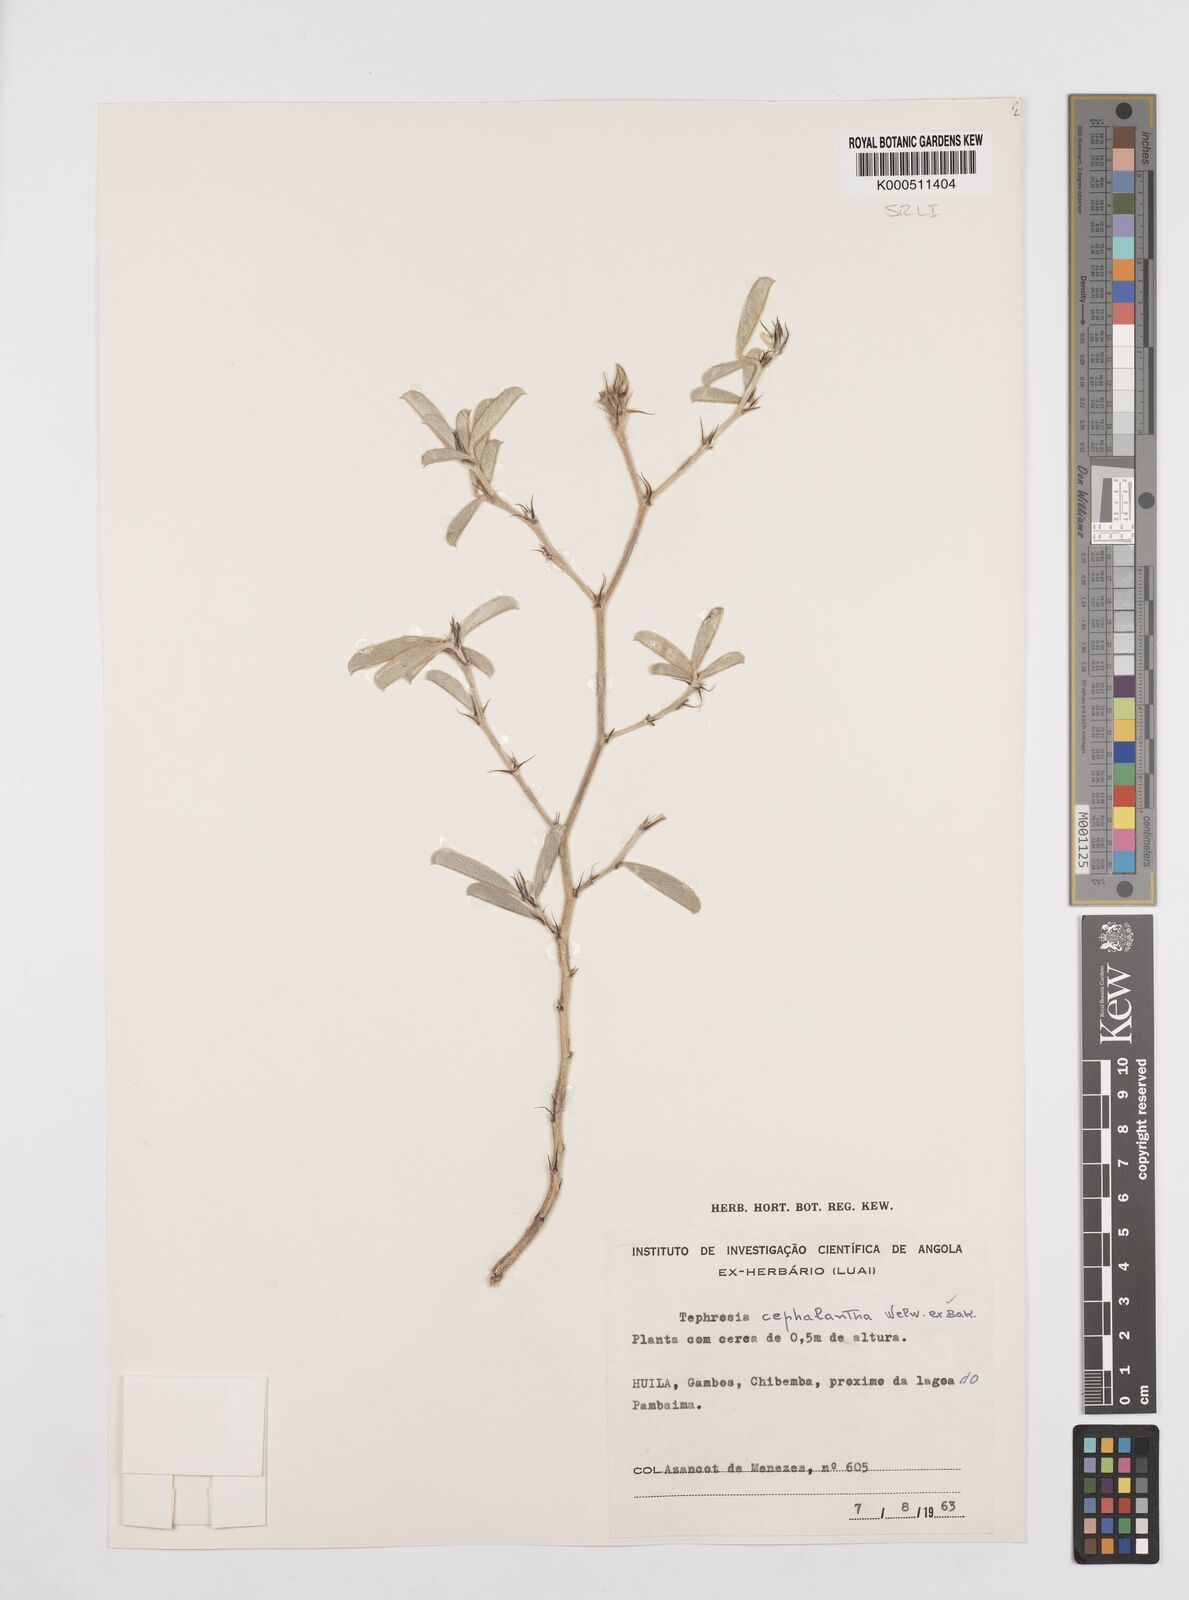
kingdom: Plantae
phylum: Tracheophyta
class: Magnoliopsida
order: Fabales
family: Fabaceae
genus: Tephrosia
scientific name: Tephrosia cephalantha
